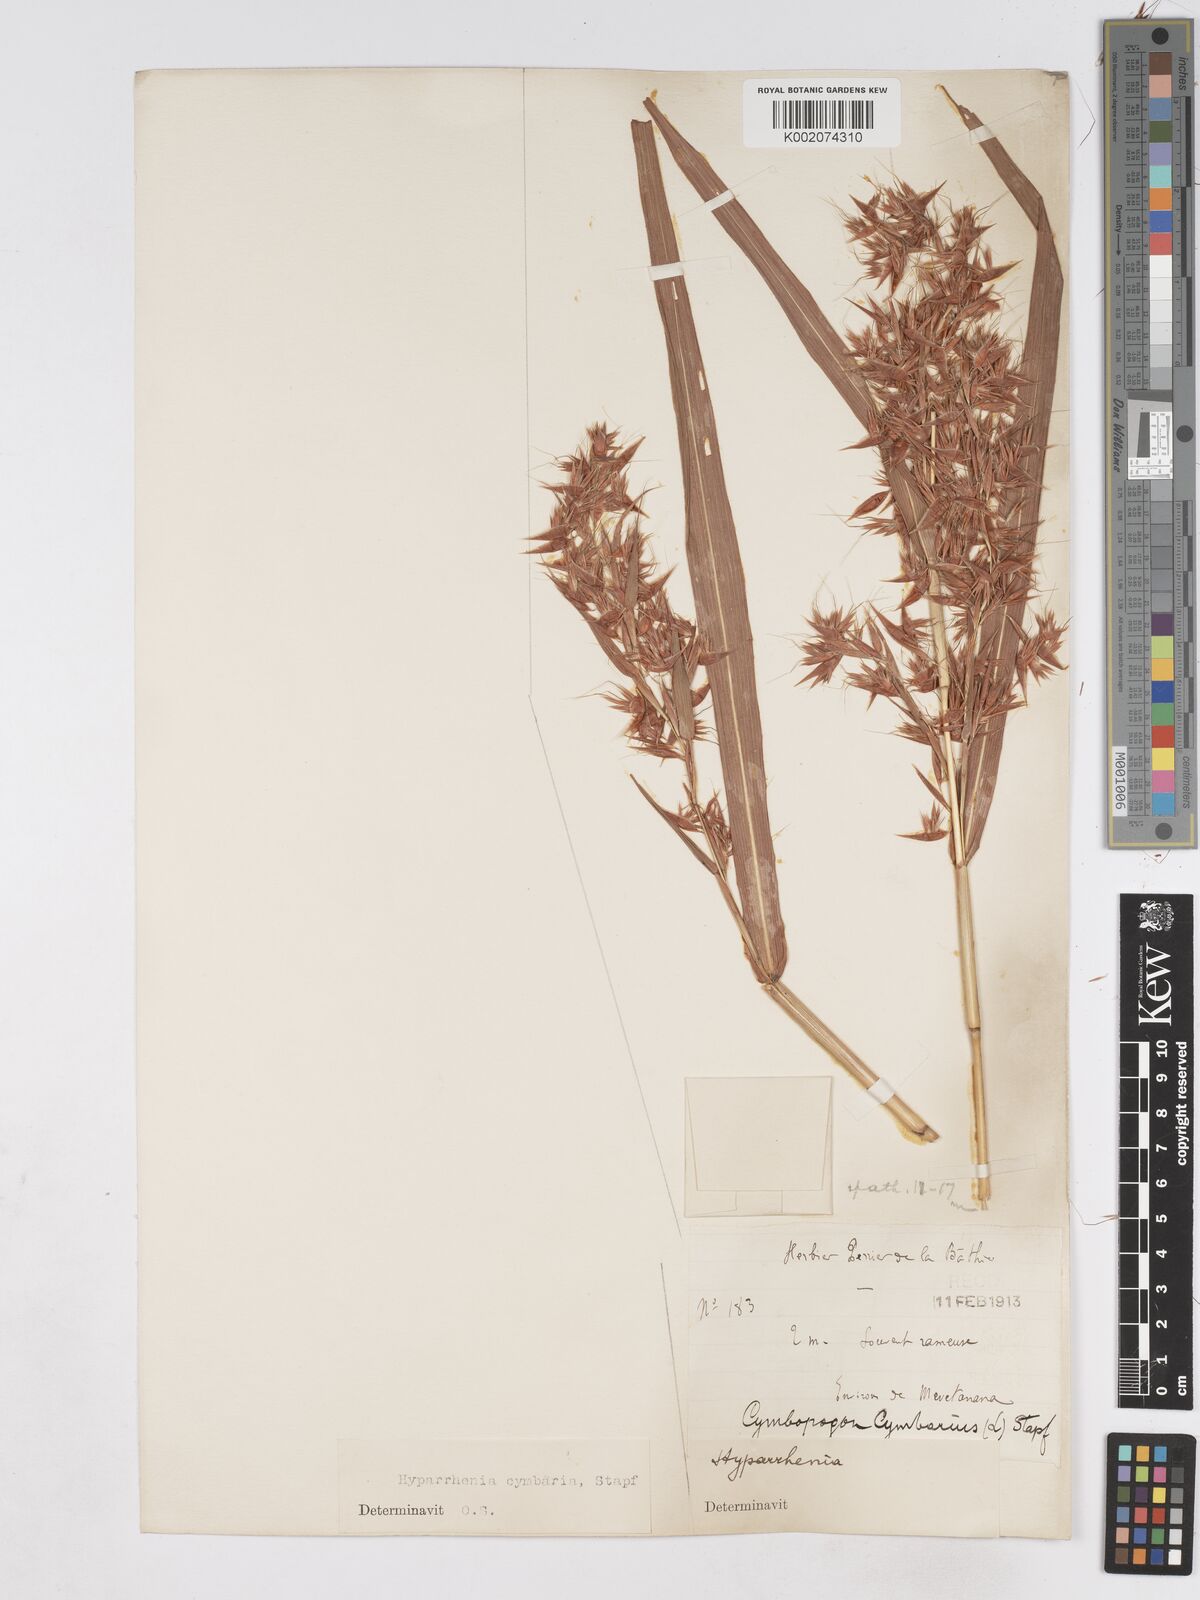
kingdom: Plantae
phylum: Tracheophyta
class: Liliopsida
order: Poales
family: Poaceae
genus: Hyparrhenia
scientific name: Hyparrhenia cymbaria
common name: Boat thatching grass
